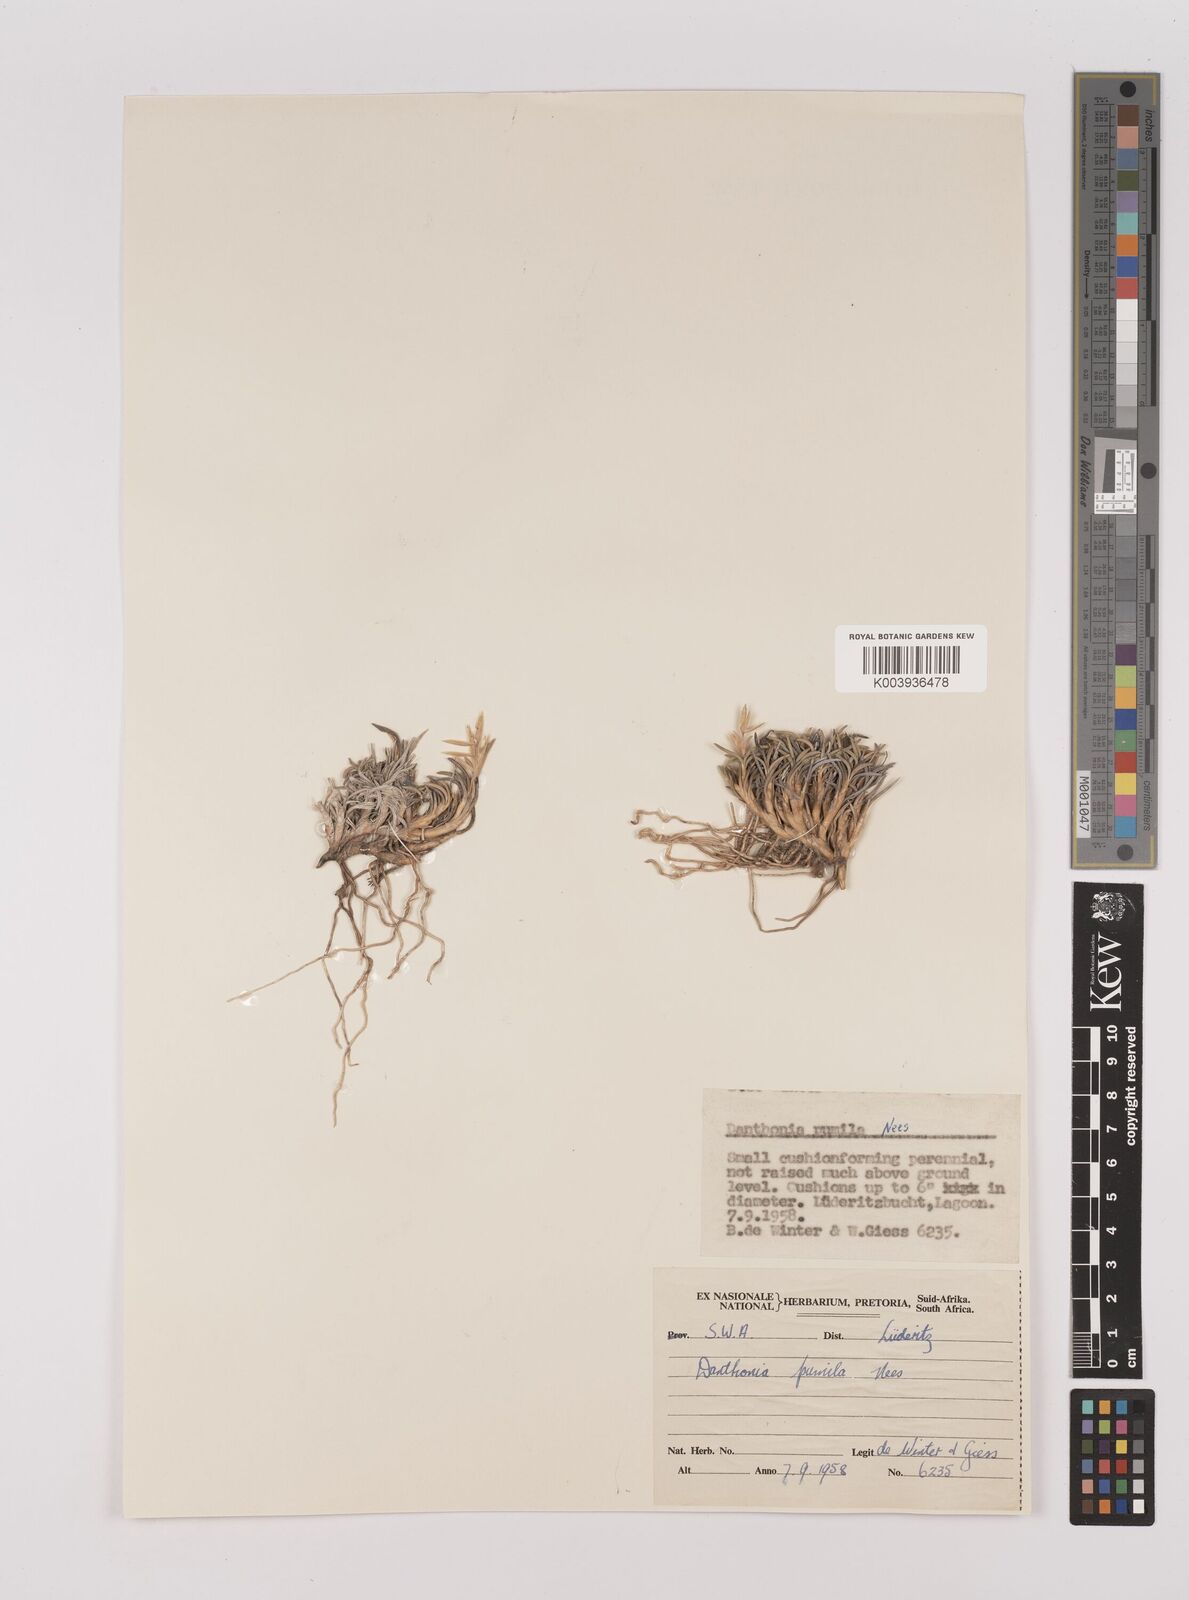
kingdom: Plantae
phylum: Tracheophyta
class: Liliopsida
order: Poales
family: Poaceae
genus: Dregeochloa
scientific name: Dregeochloa pumila
